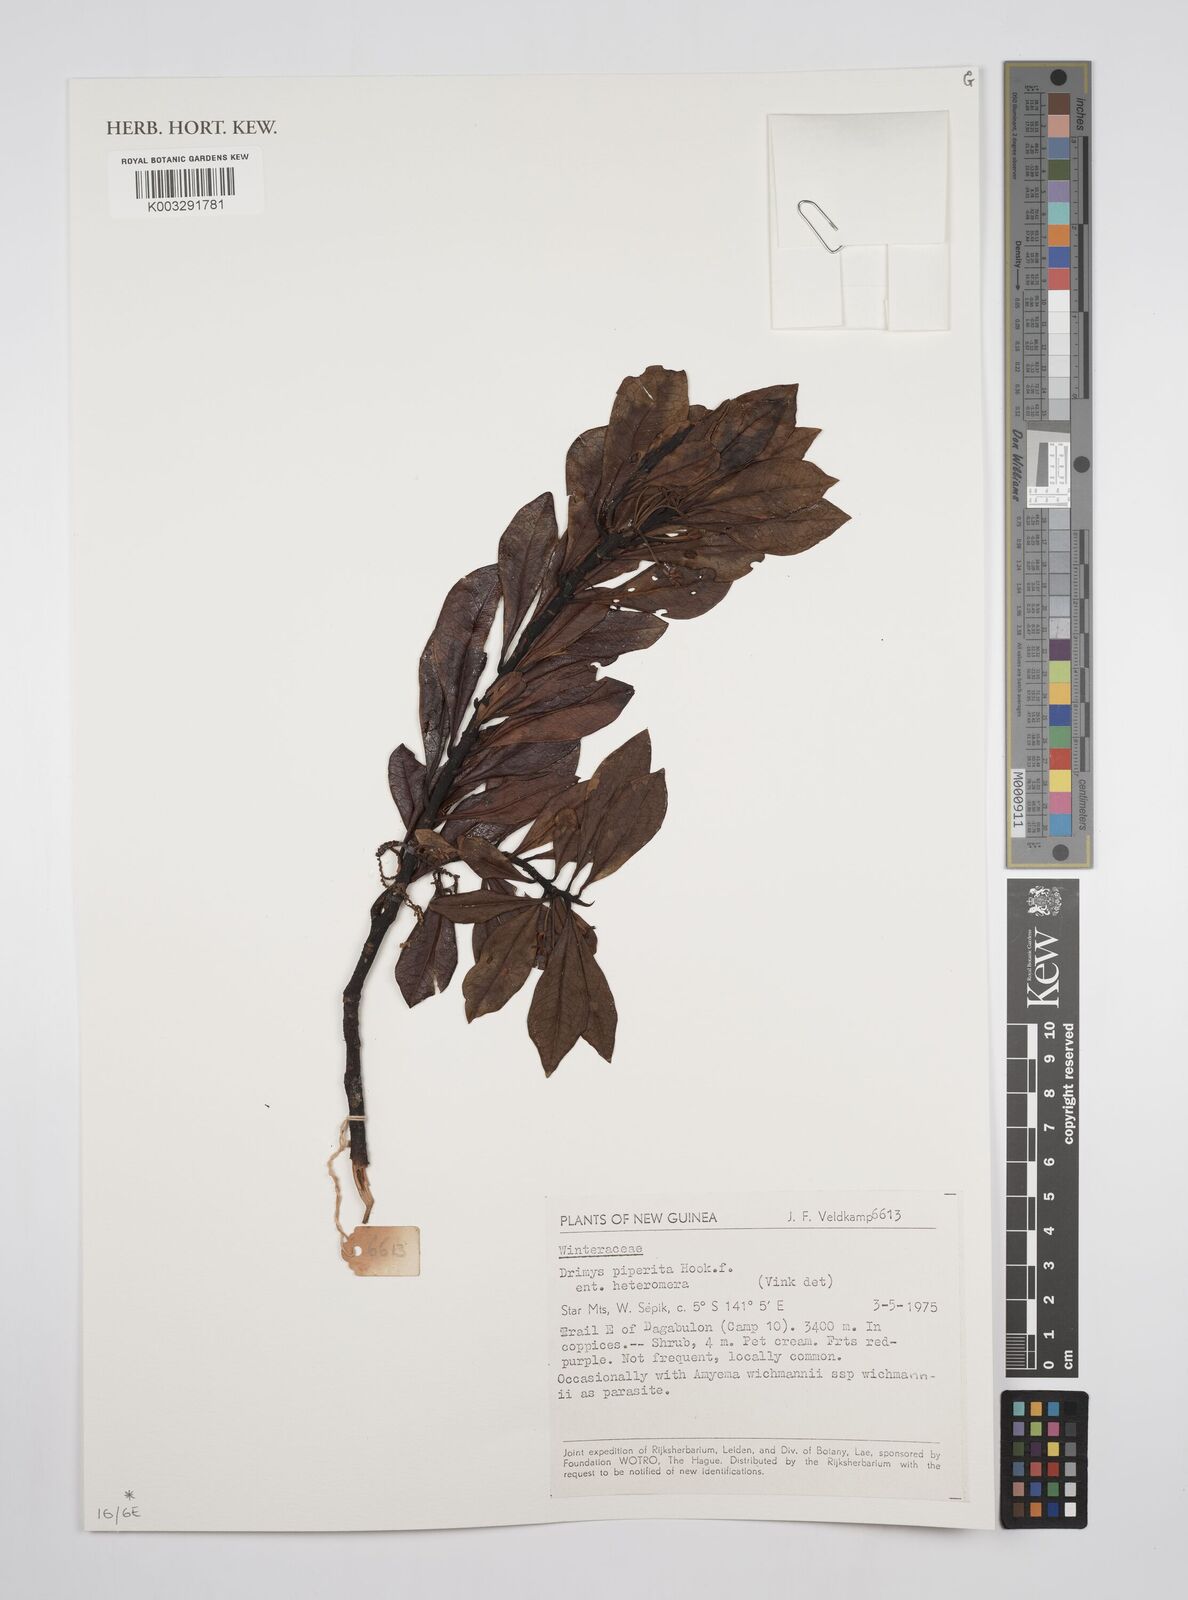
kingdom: Plantae
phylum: Tracheophyta
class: Magnoliopsida
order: Canellales
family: Winteraceae
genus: Drimys
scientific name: Drimys piperita
